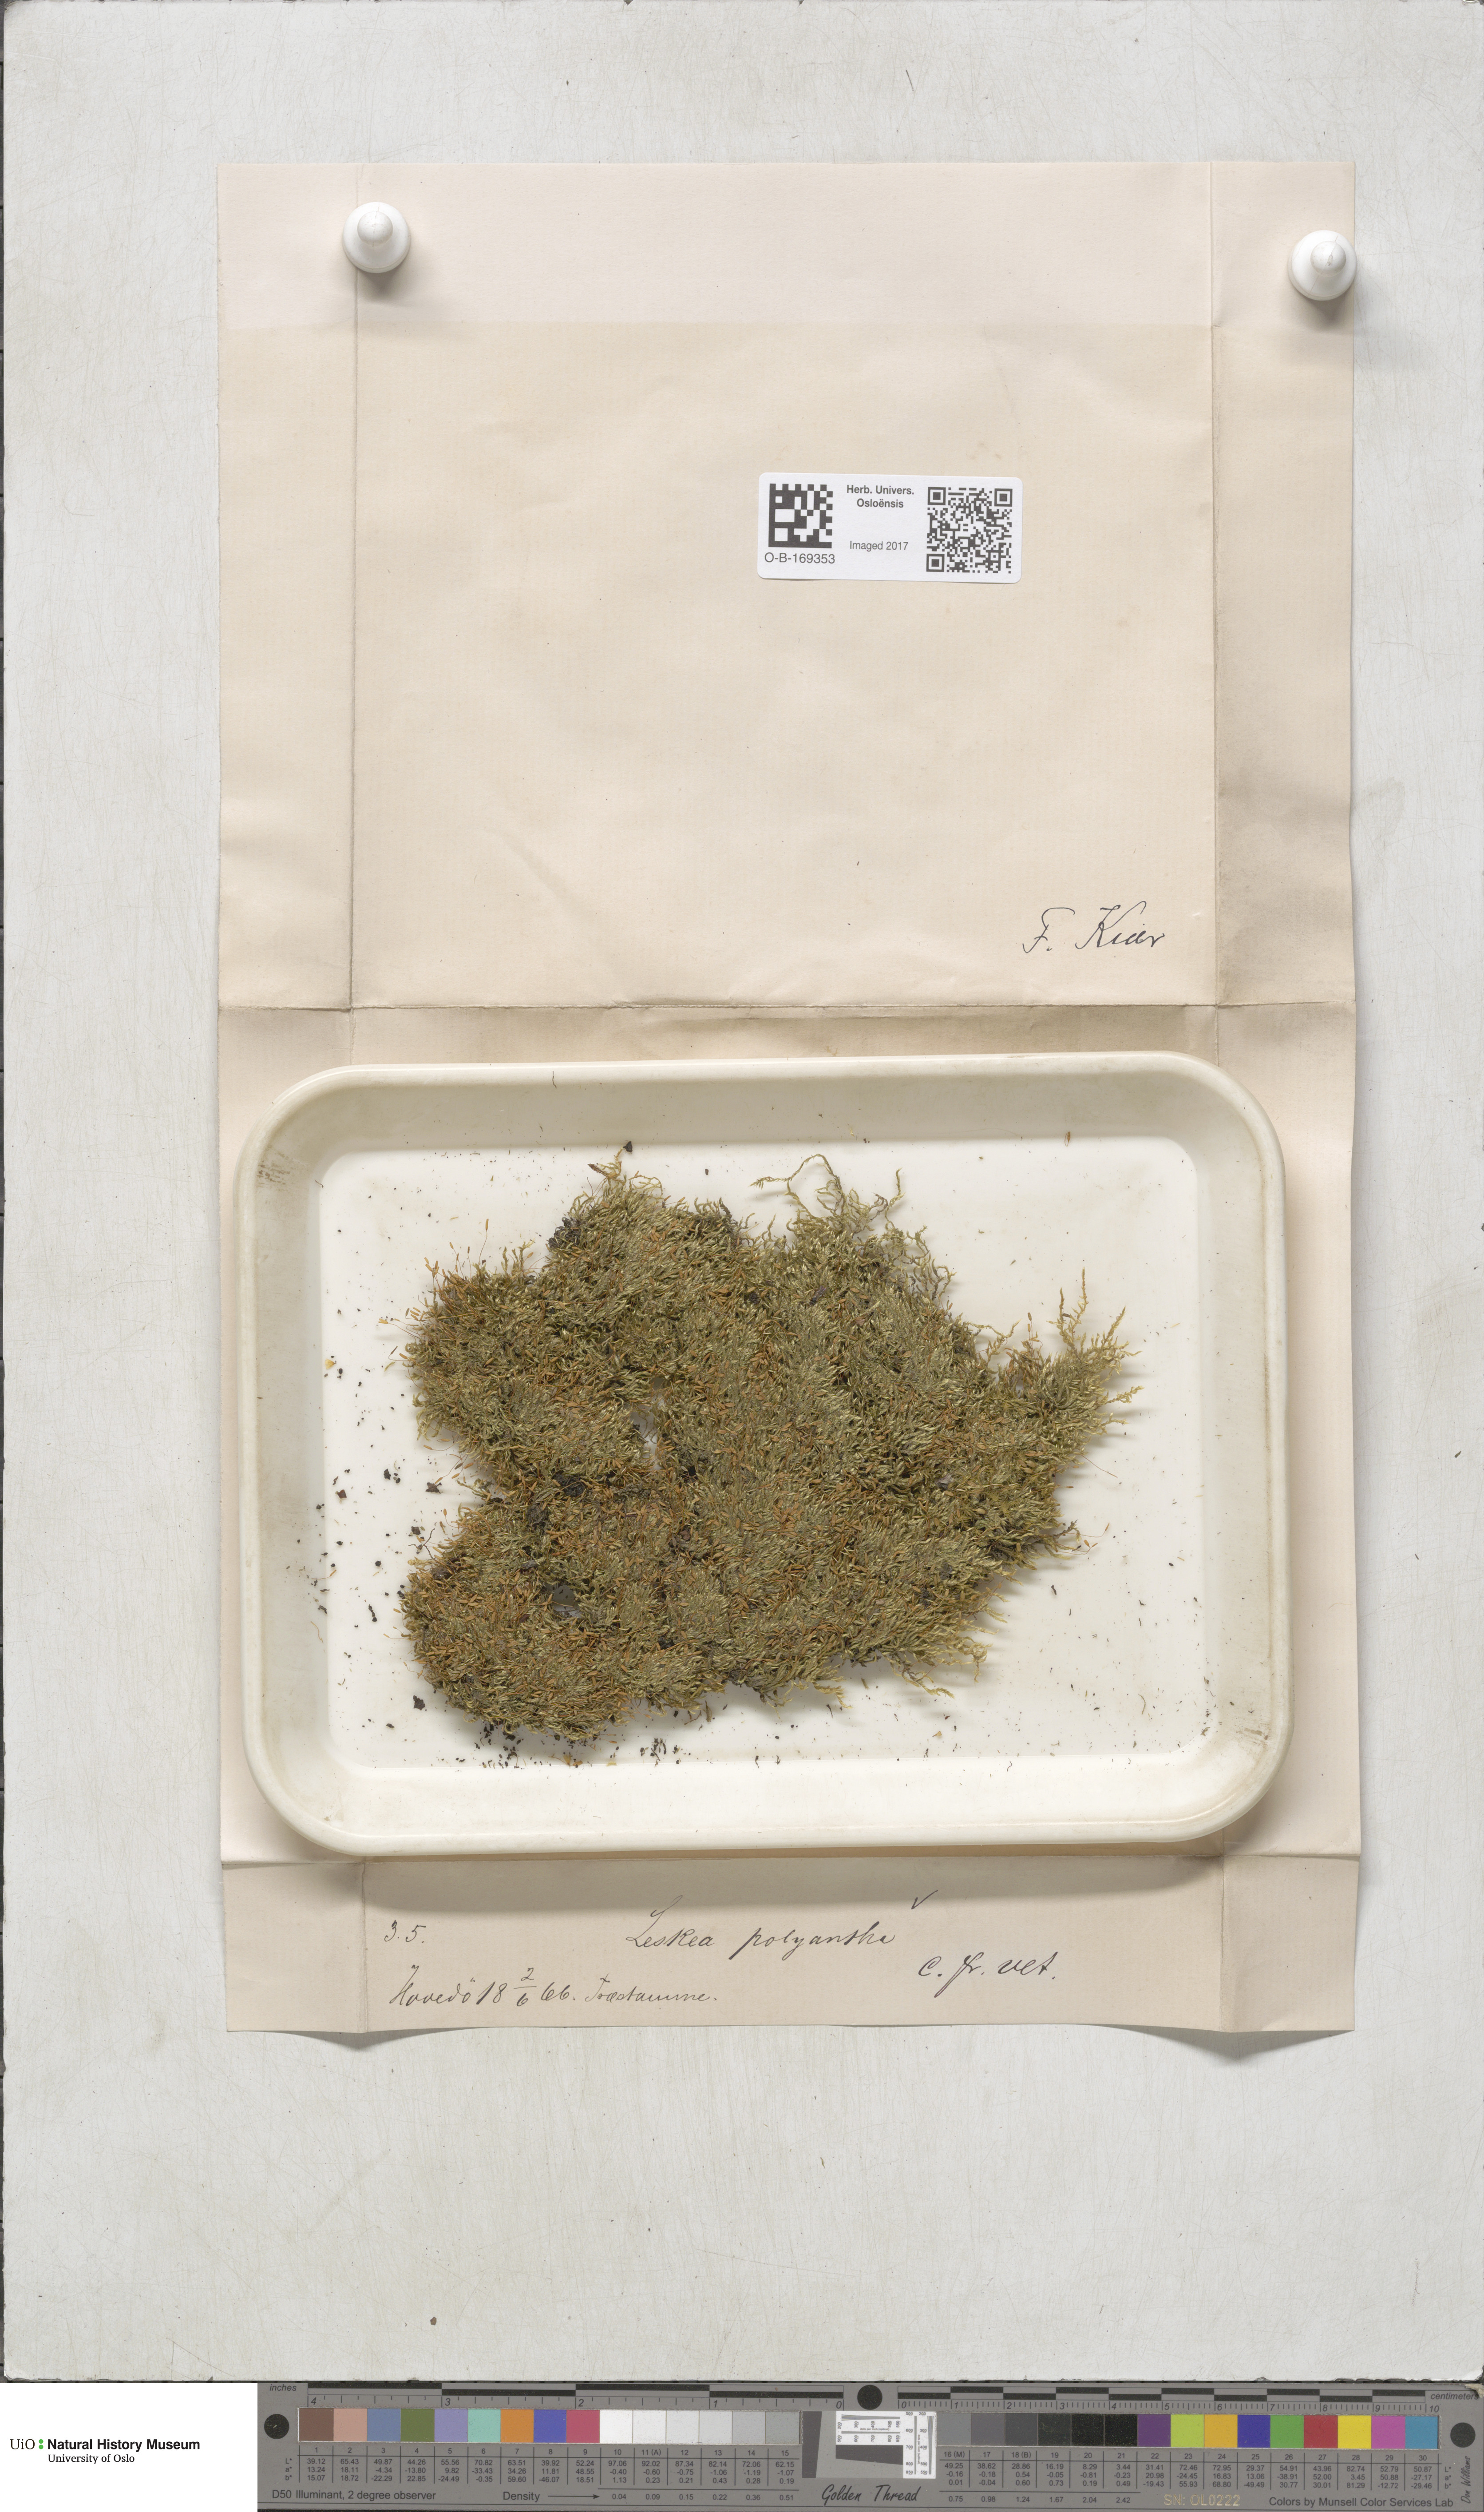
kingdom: Plantae
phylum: Bryophyta
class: Bryopsida
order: Hypnales
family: Pylaisiaceae
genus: Pylaisia
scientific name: Pylaisia polyantha
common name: Many-flowered leskea
